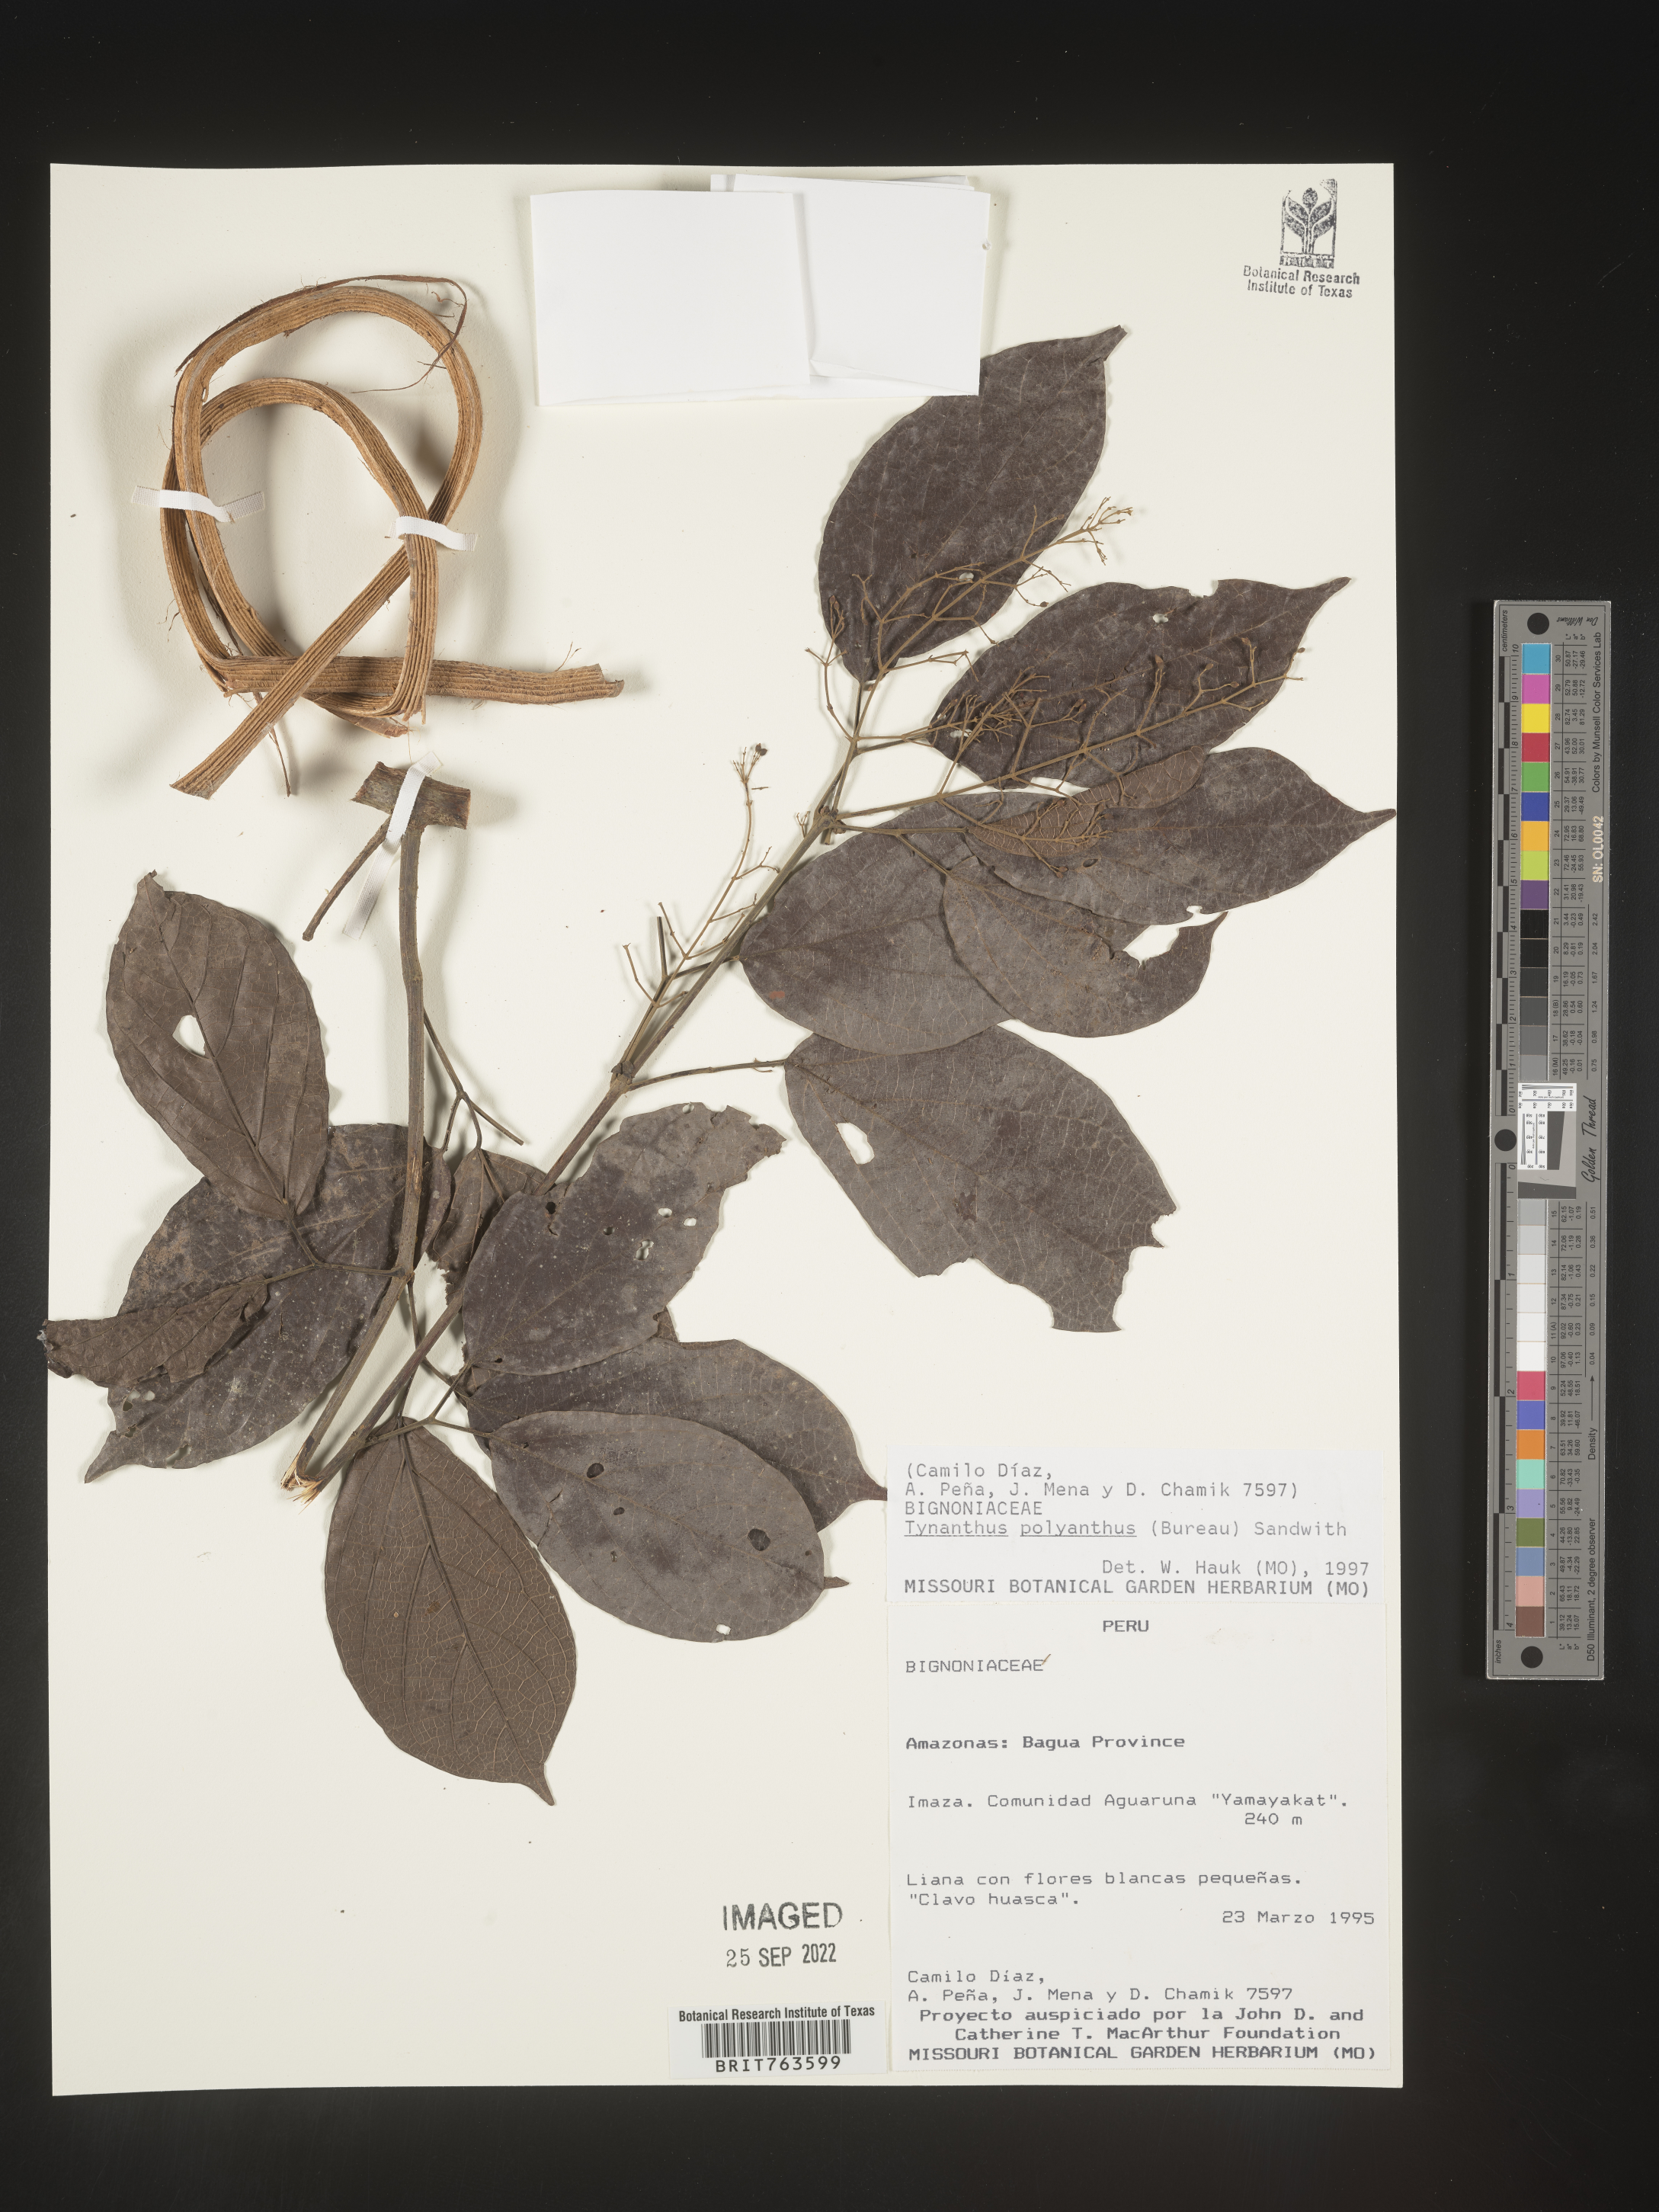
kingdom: Plantae
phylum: Tracheophyta
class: Magnoliopsida
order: Lamiales
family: Bignoniaceae
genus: Tynanthus
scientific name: Tynanthus
